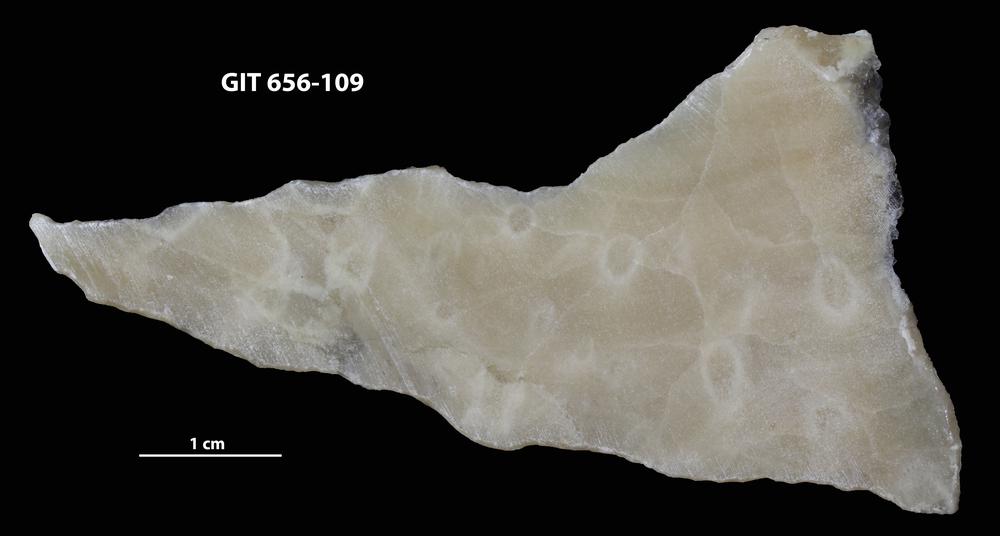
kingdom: Animalia
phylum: Porifera
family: Stromatoporidae
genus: Parallelostroma
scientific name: Parallelostroma
